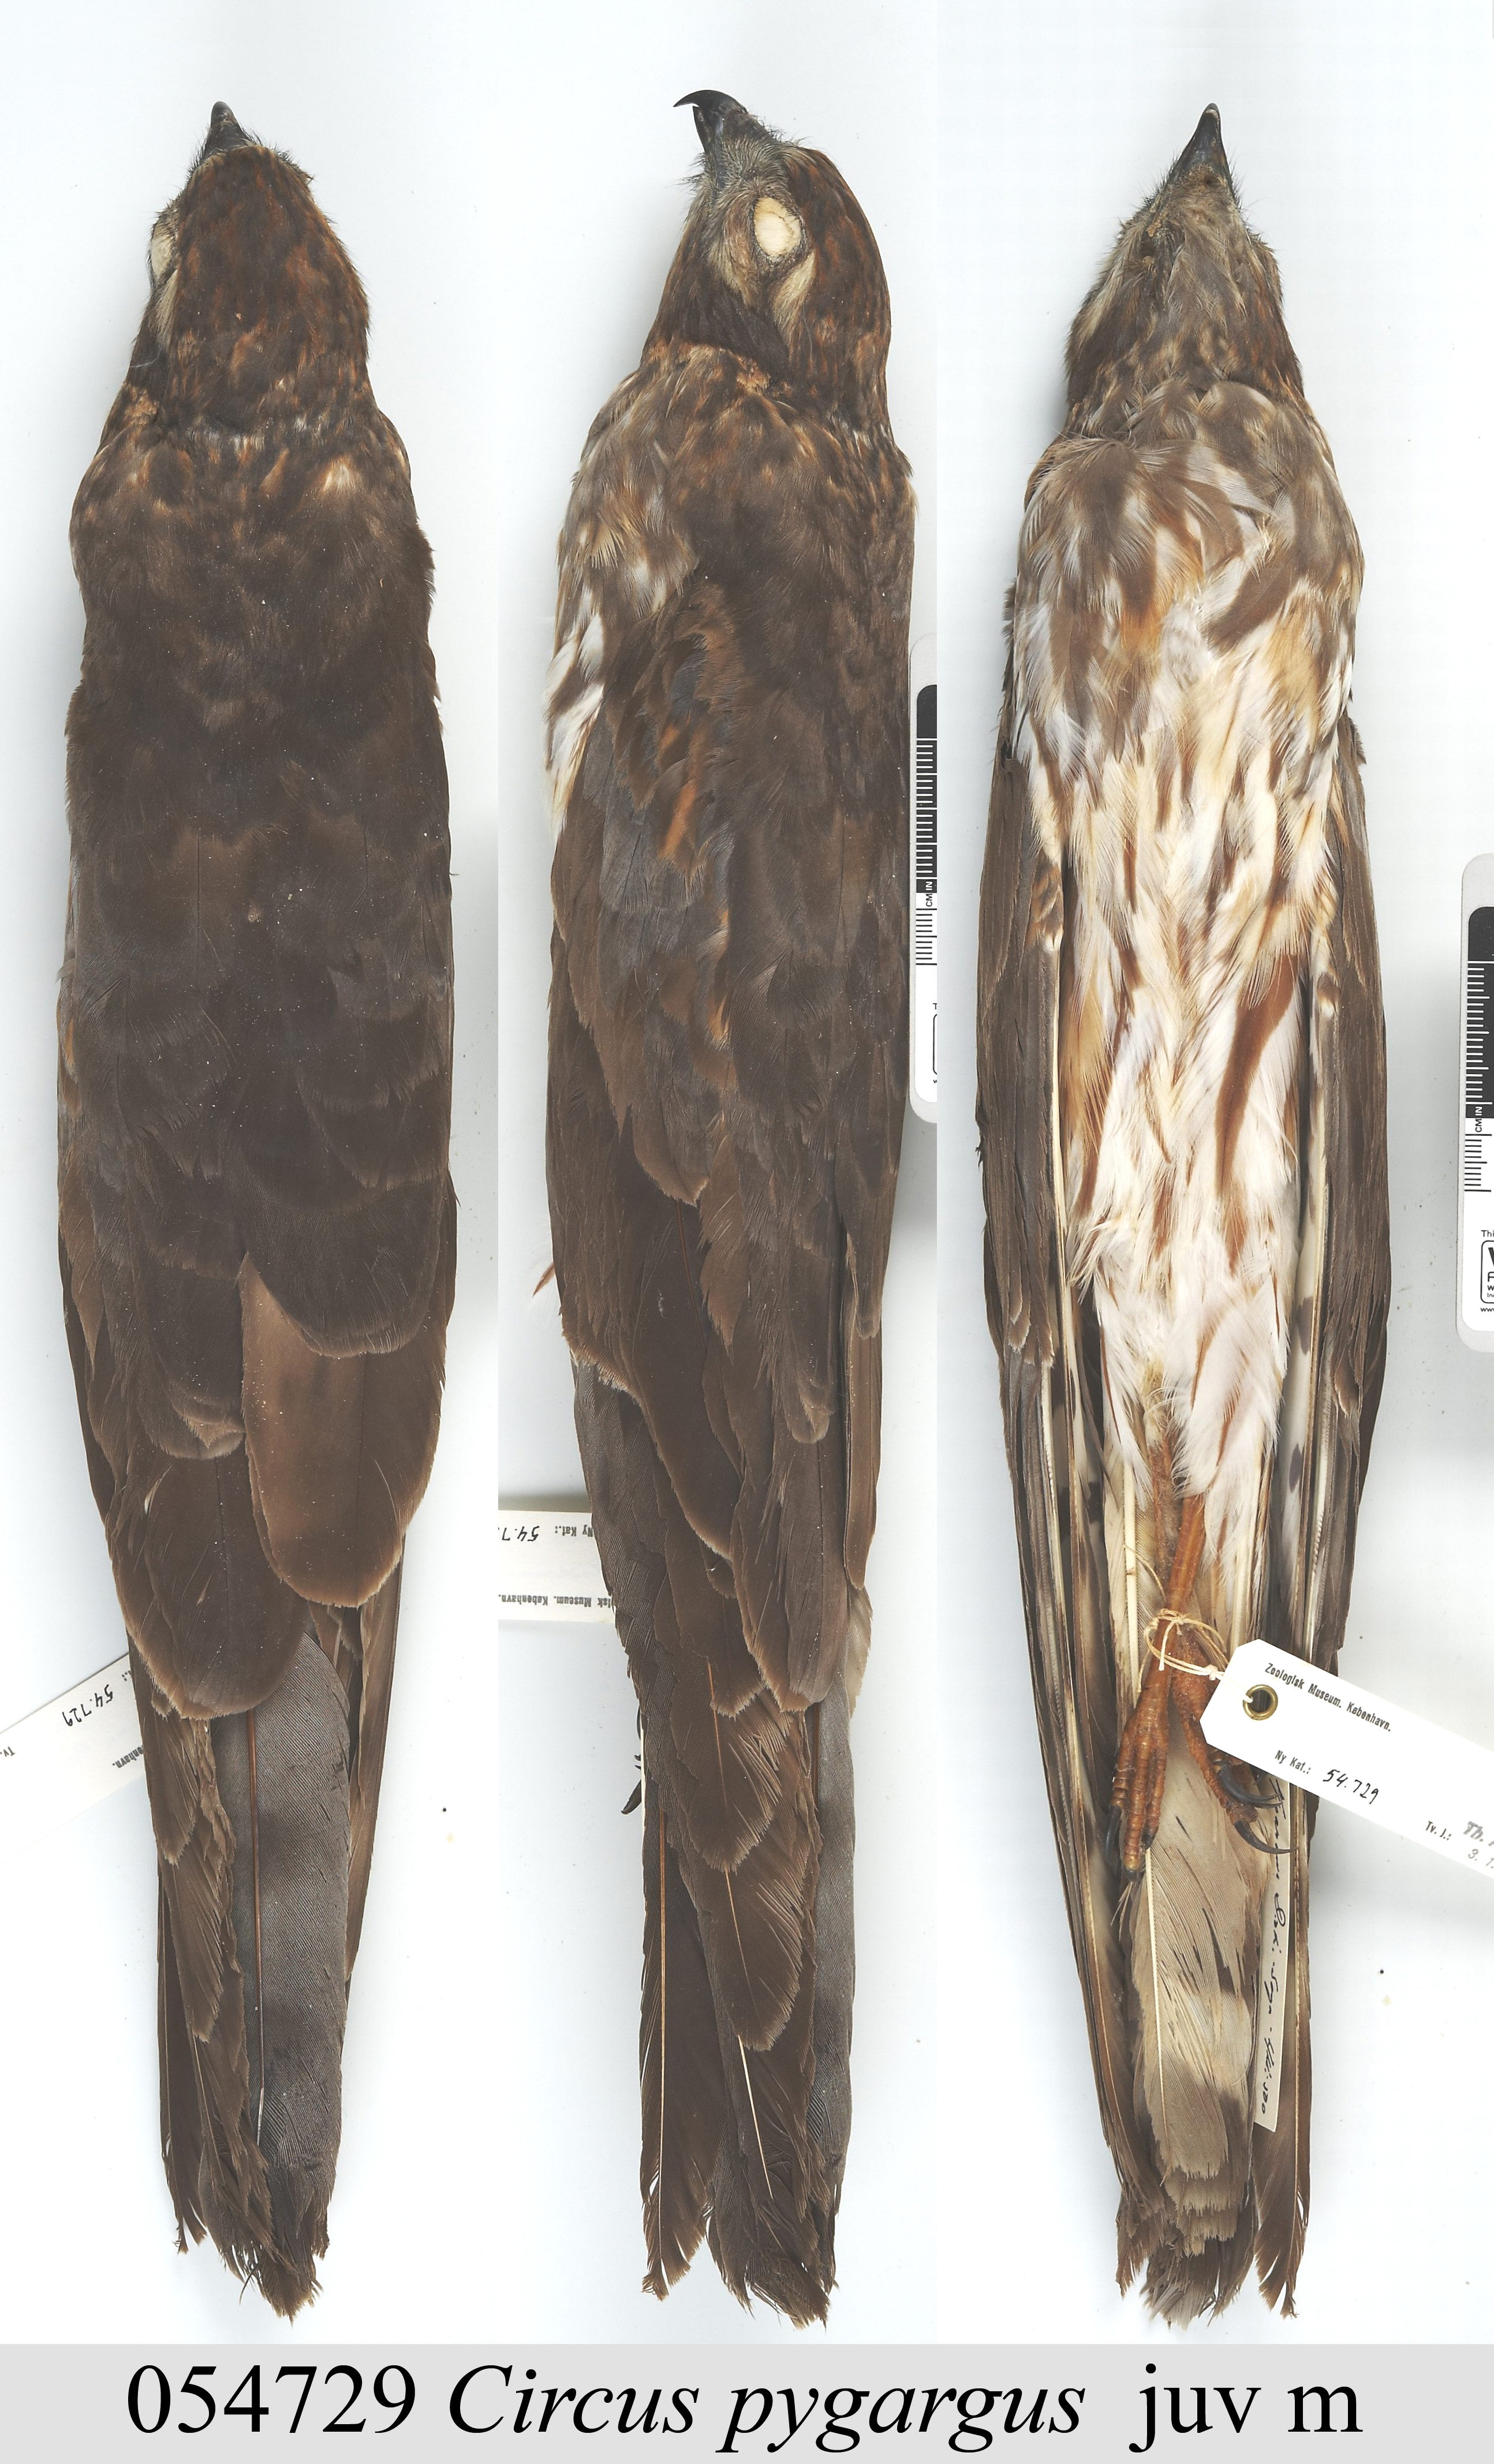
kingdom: Animalia
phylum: Chordata
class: Aves
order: Accipitriformes
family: Accipitridae
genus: Circus
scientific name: Circus pygargus
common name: Montagu's harrier
